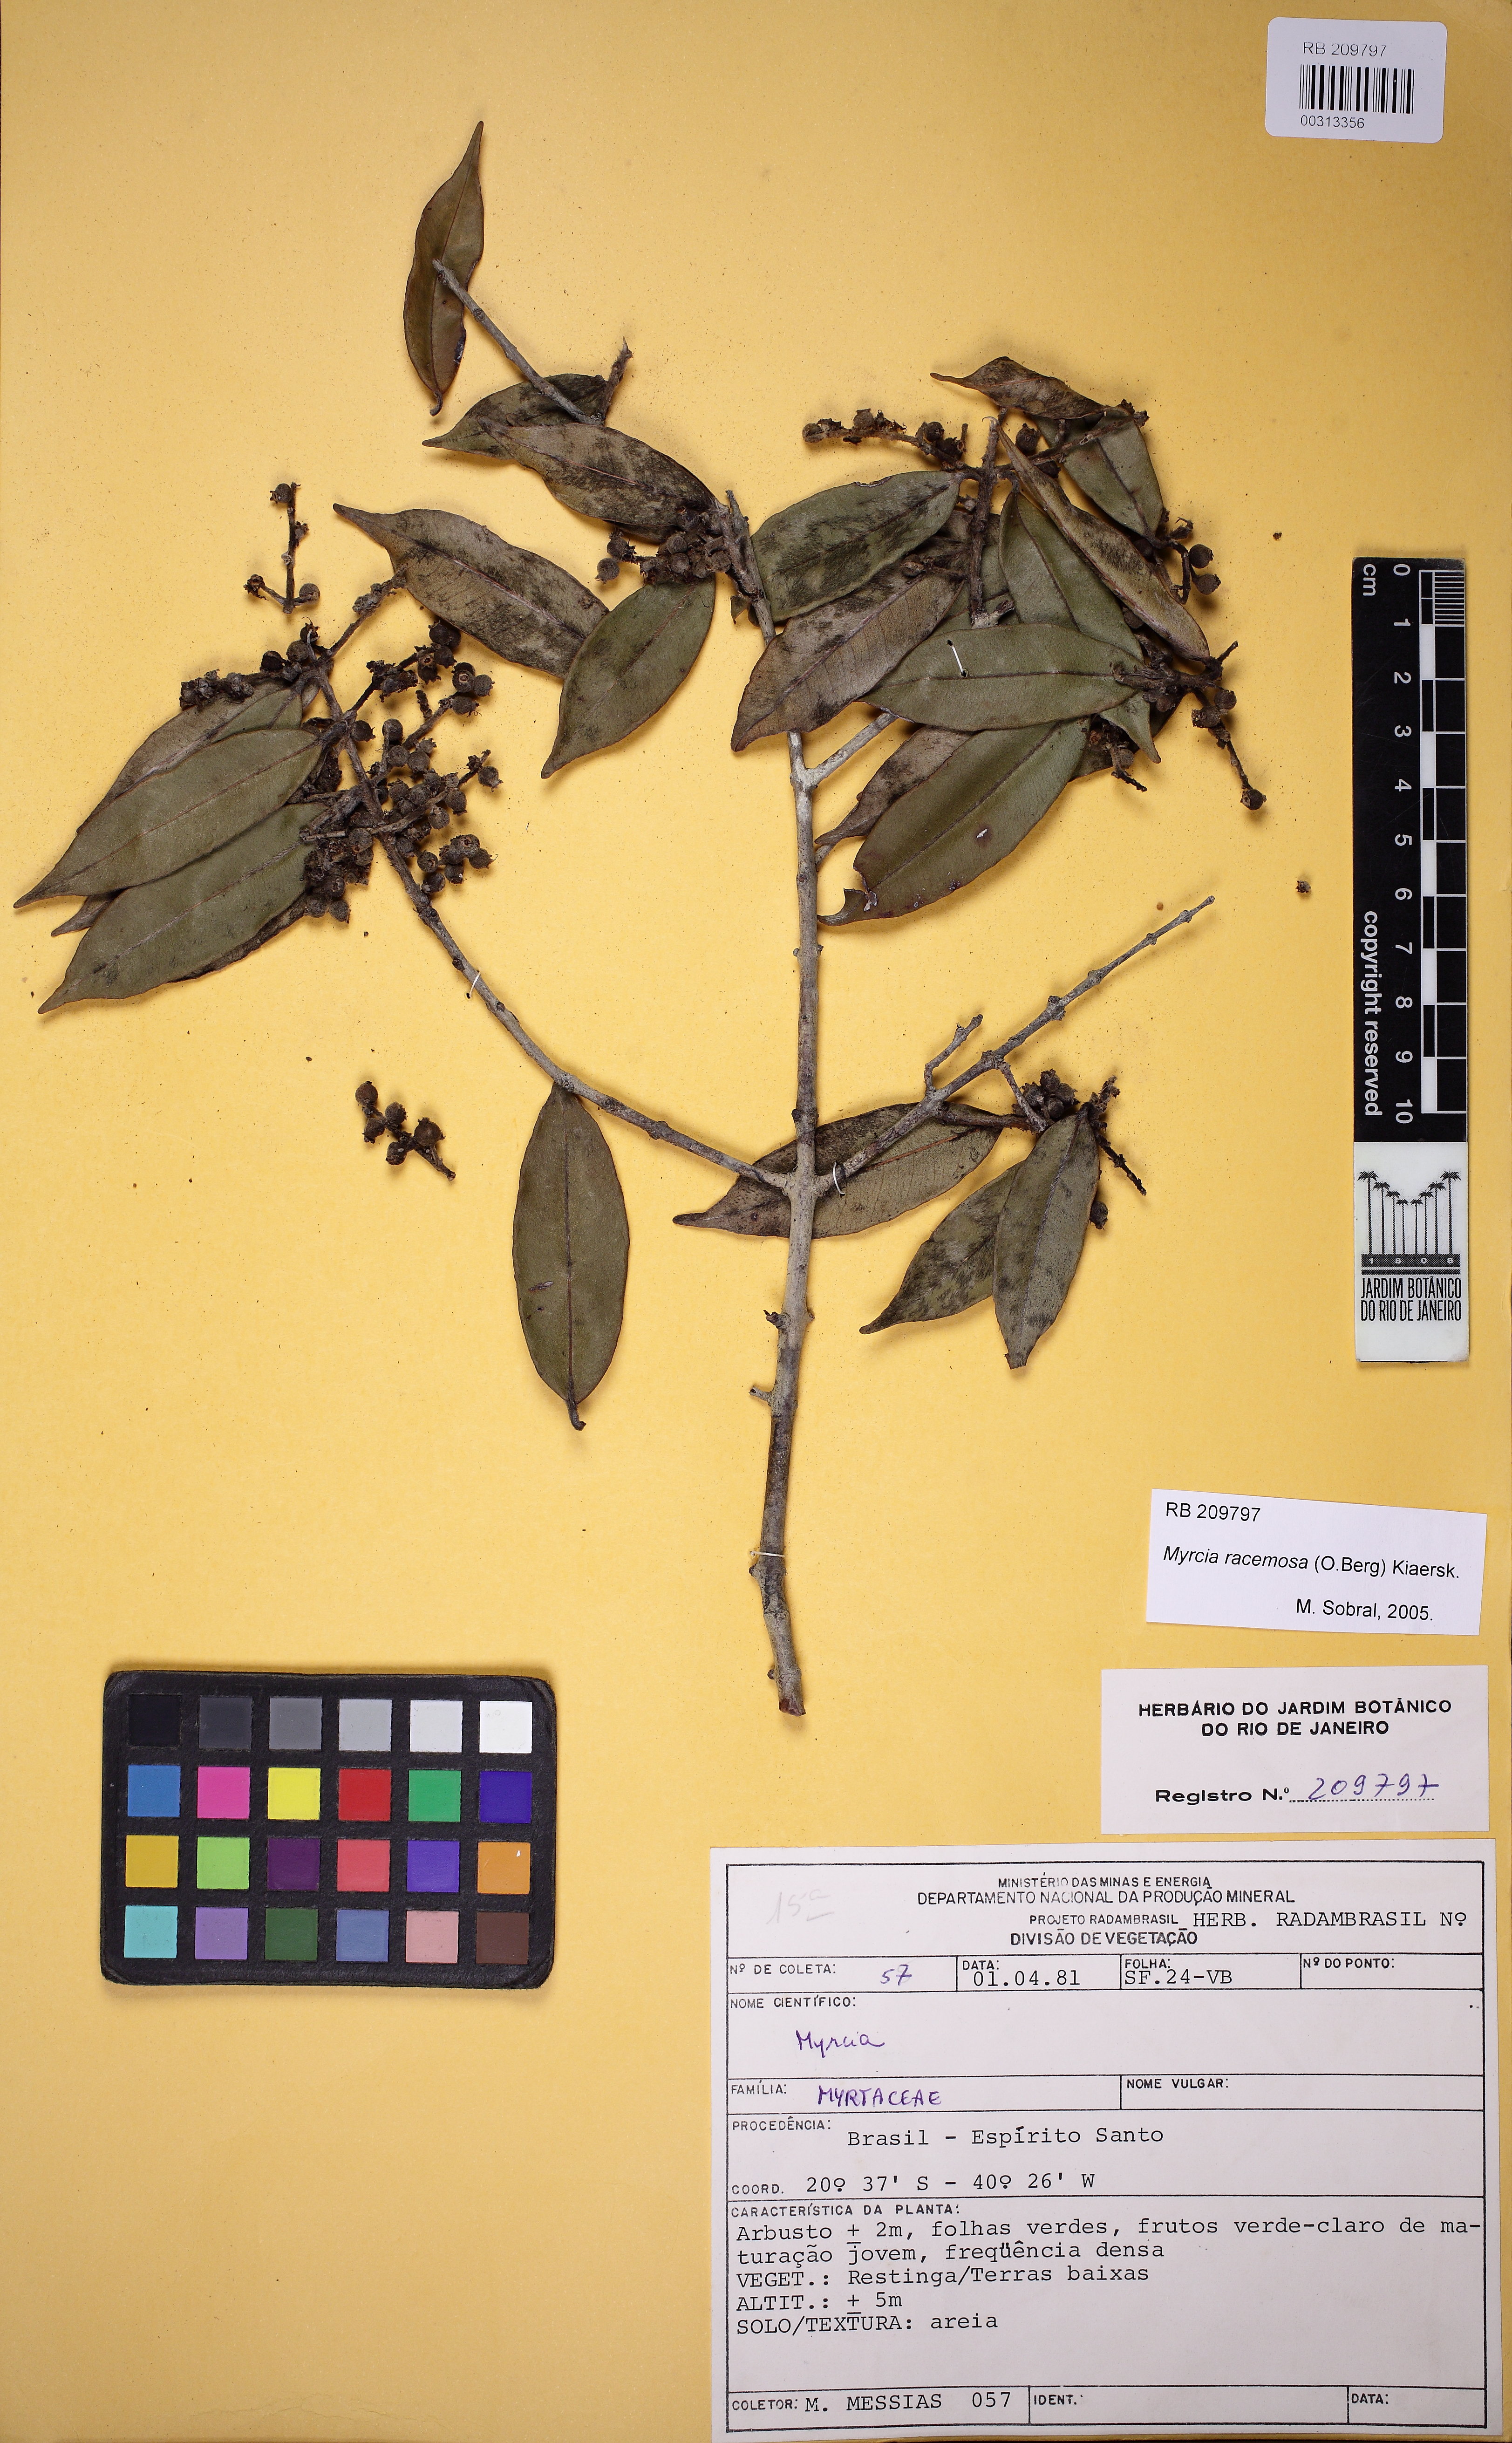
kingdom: Plantae
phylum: Tracheophyta
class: Magnoliopsida
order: Myrtales
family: Myrtaceae
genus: Myrcia
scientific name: Myrcia tomentosa
